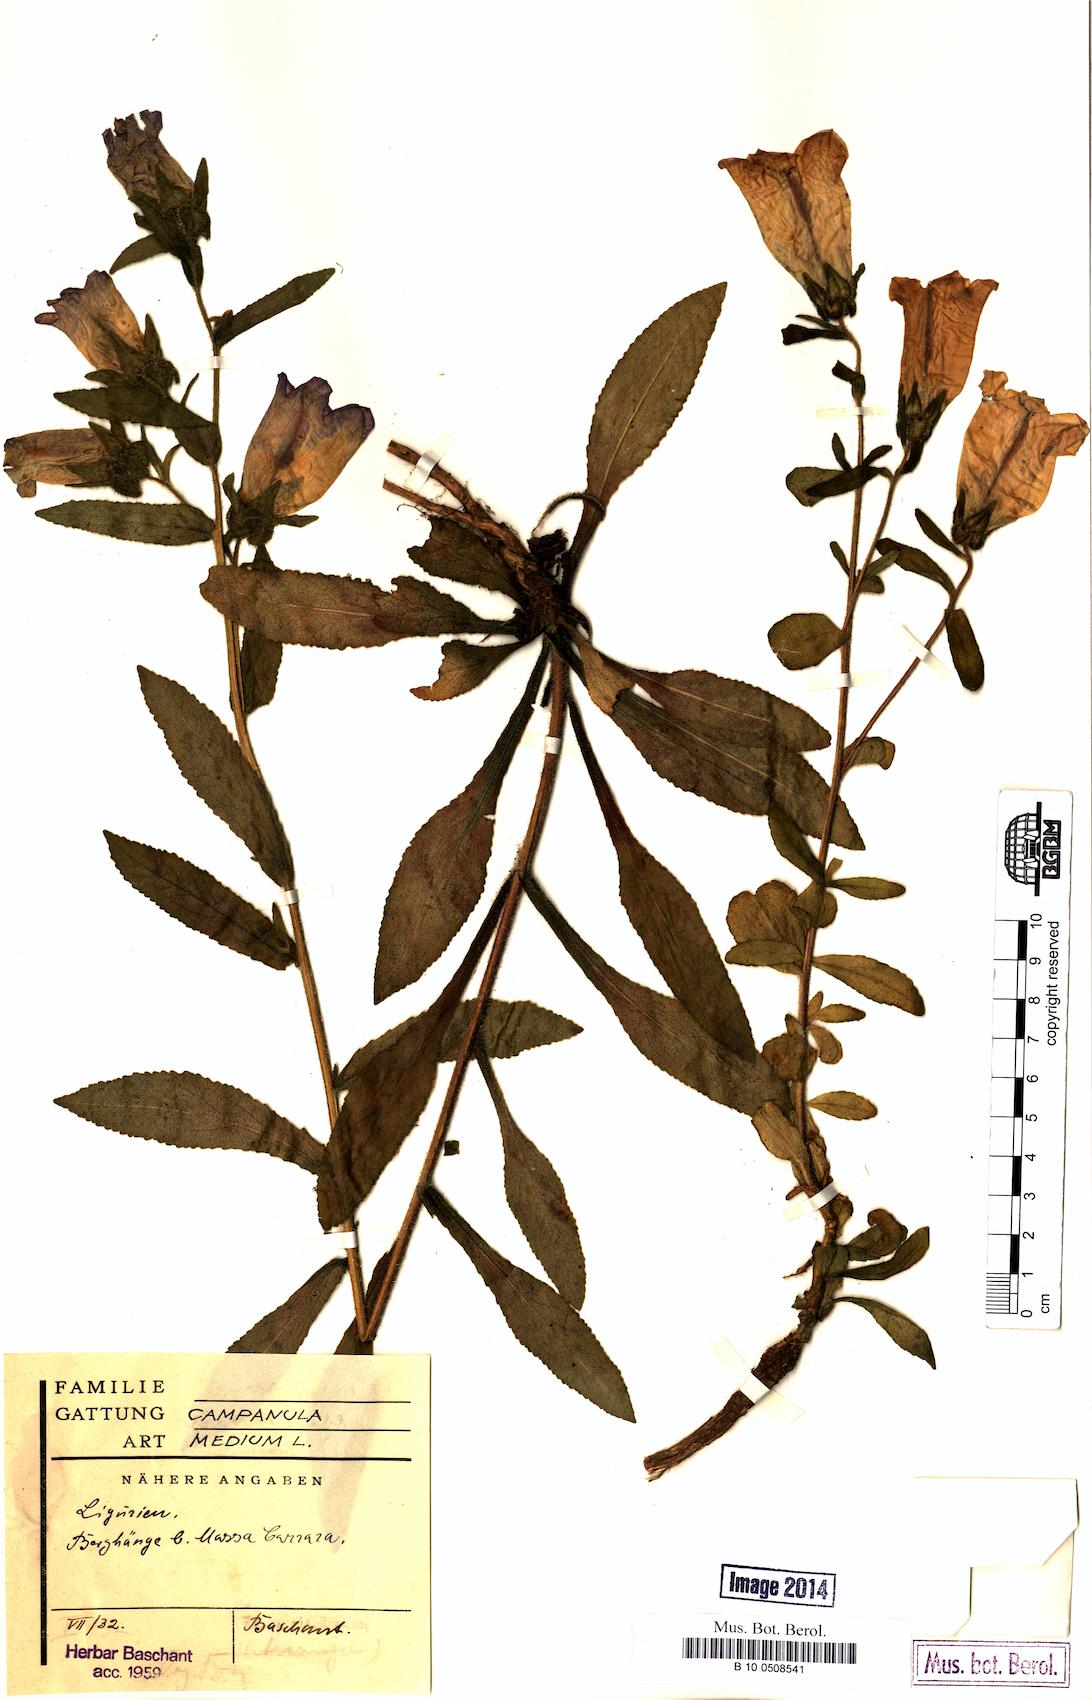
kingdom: Plantae
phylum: Tracheophyta
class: Magnoliopsida
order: Asterales
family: Campanulaceae
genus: Campanula
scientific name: Campanula medium
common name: Canterbury bells
